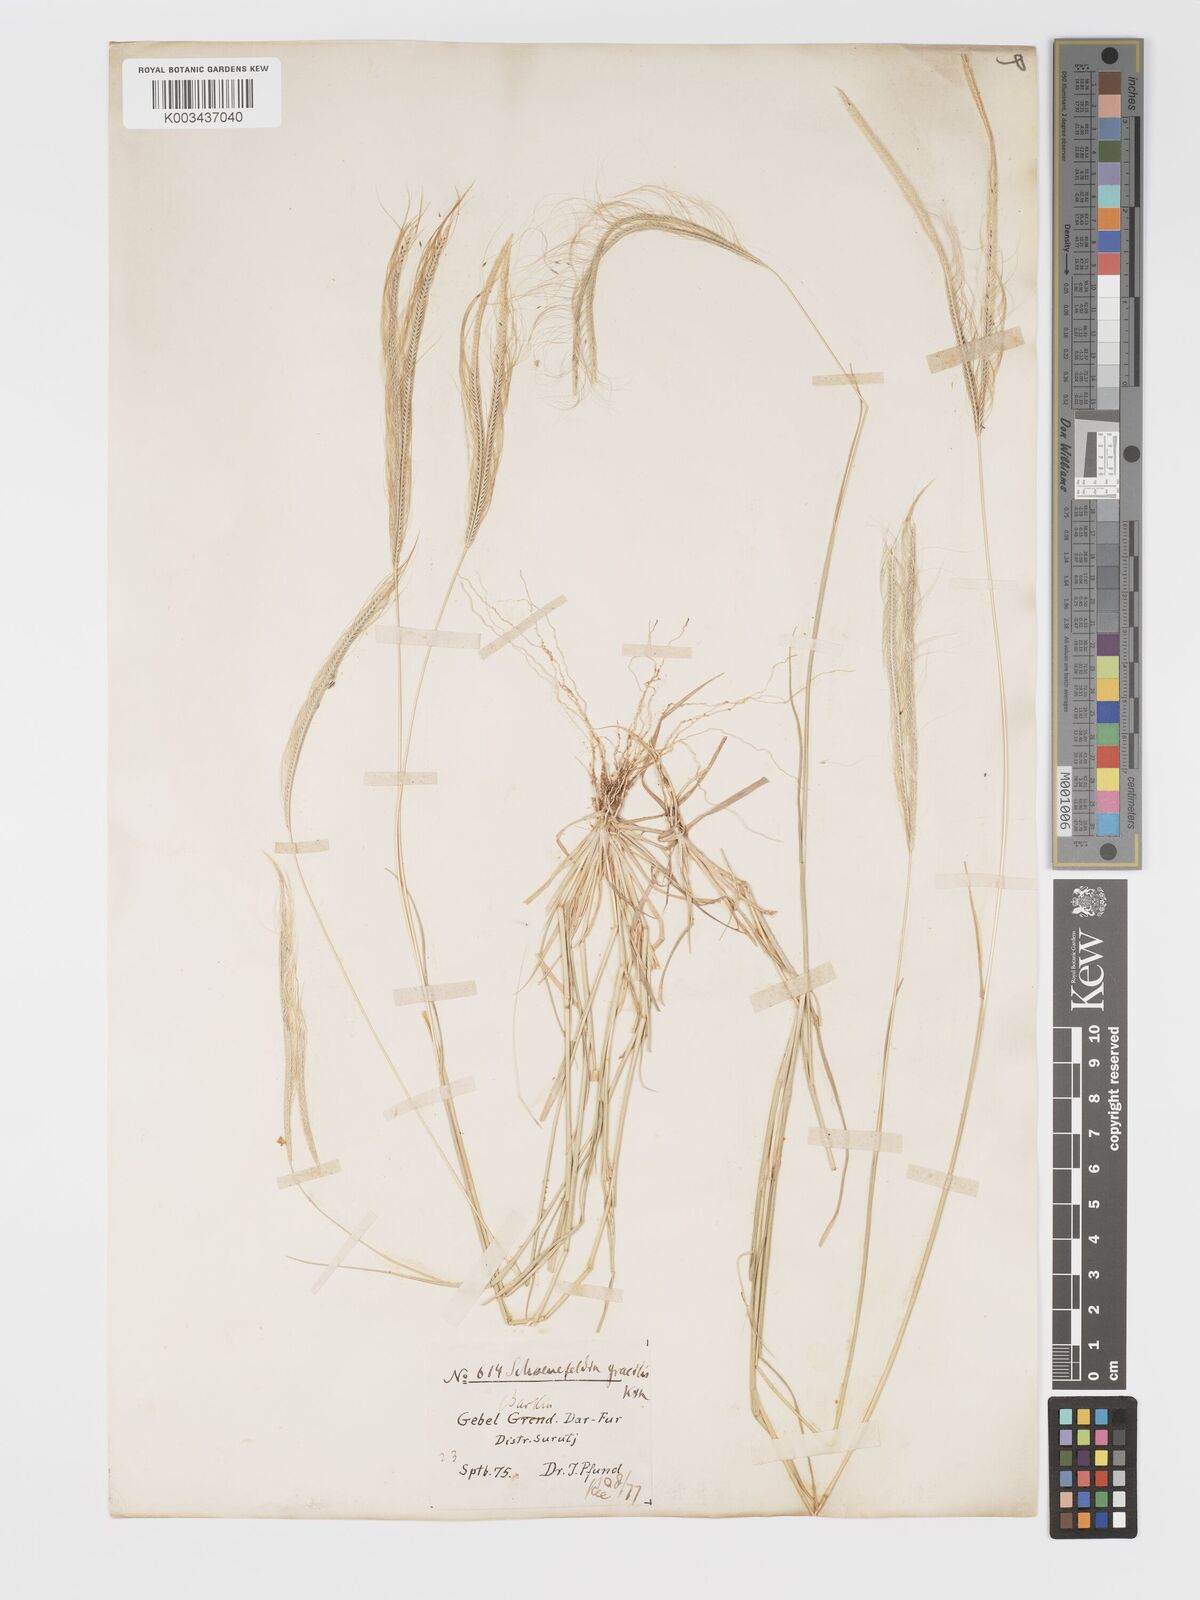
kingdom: Plantae
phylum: Tracheophyta
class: Liliopsida
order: Poales
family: Poaceae
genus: Schoenefeldia
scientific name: Schoenefeldia gracilis
